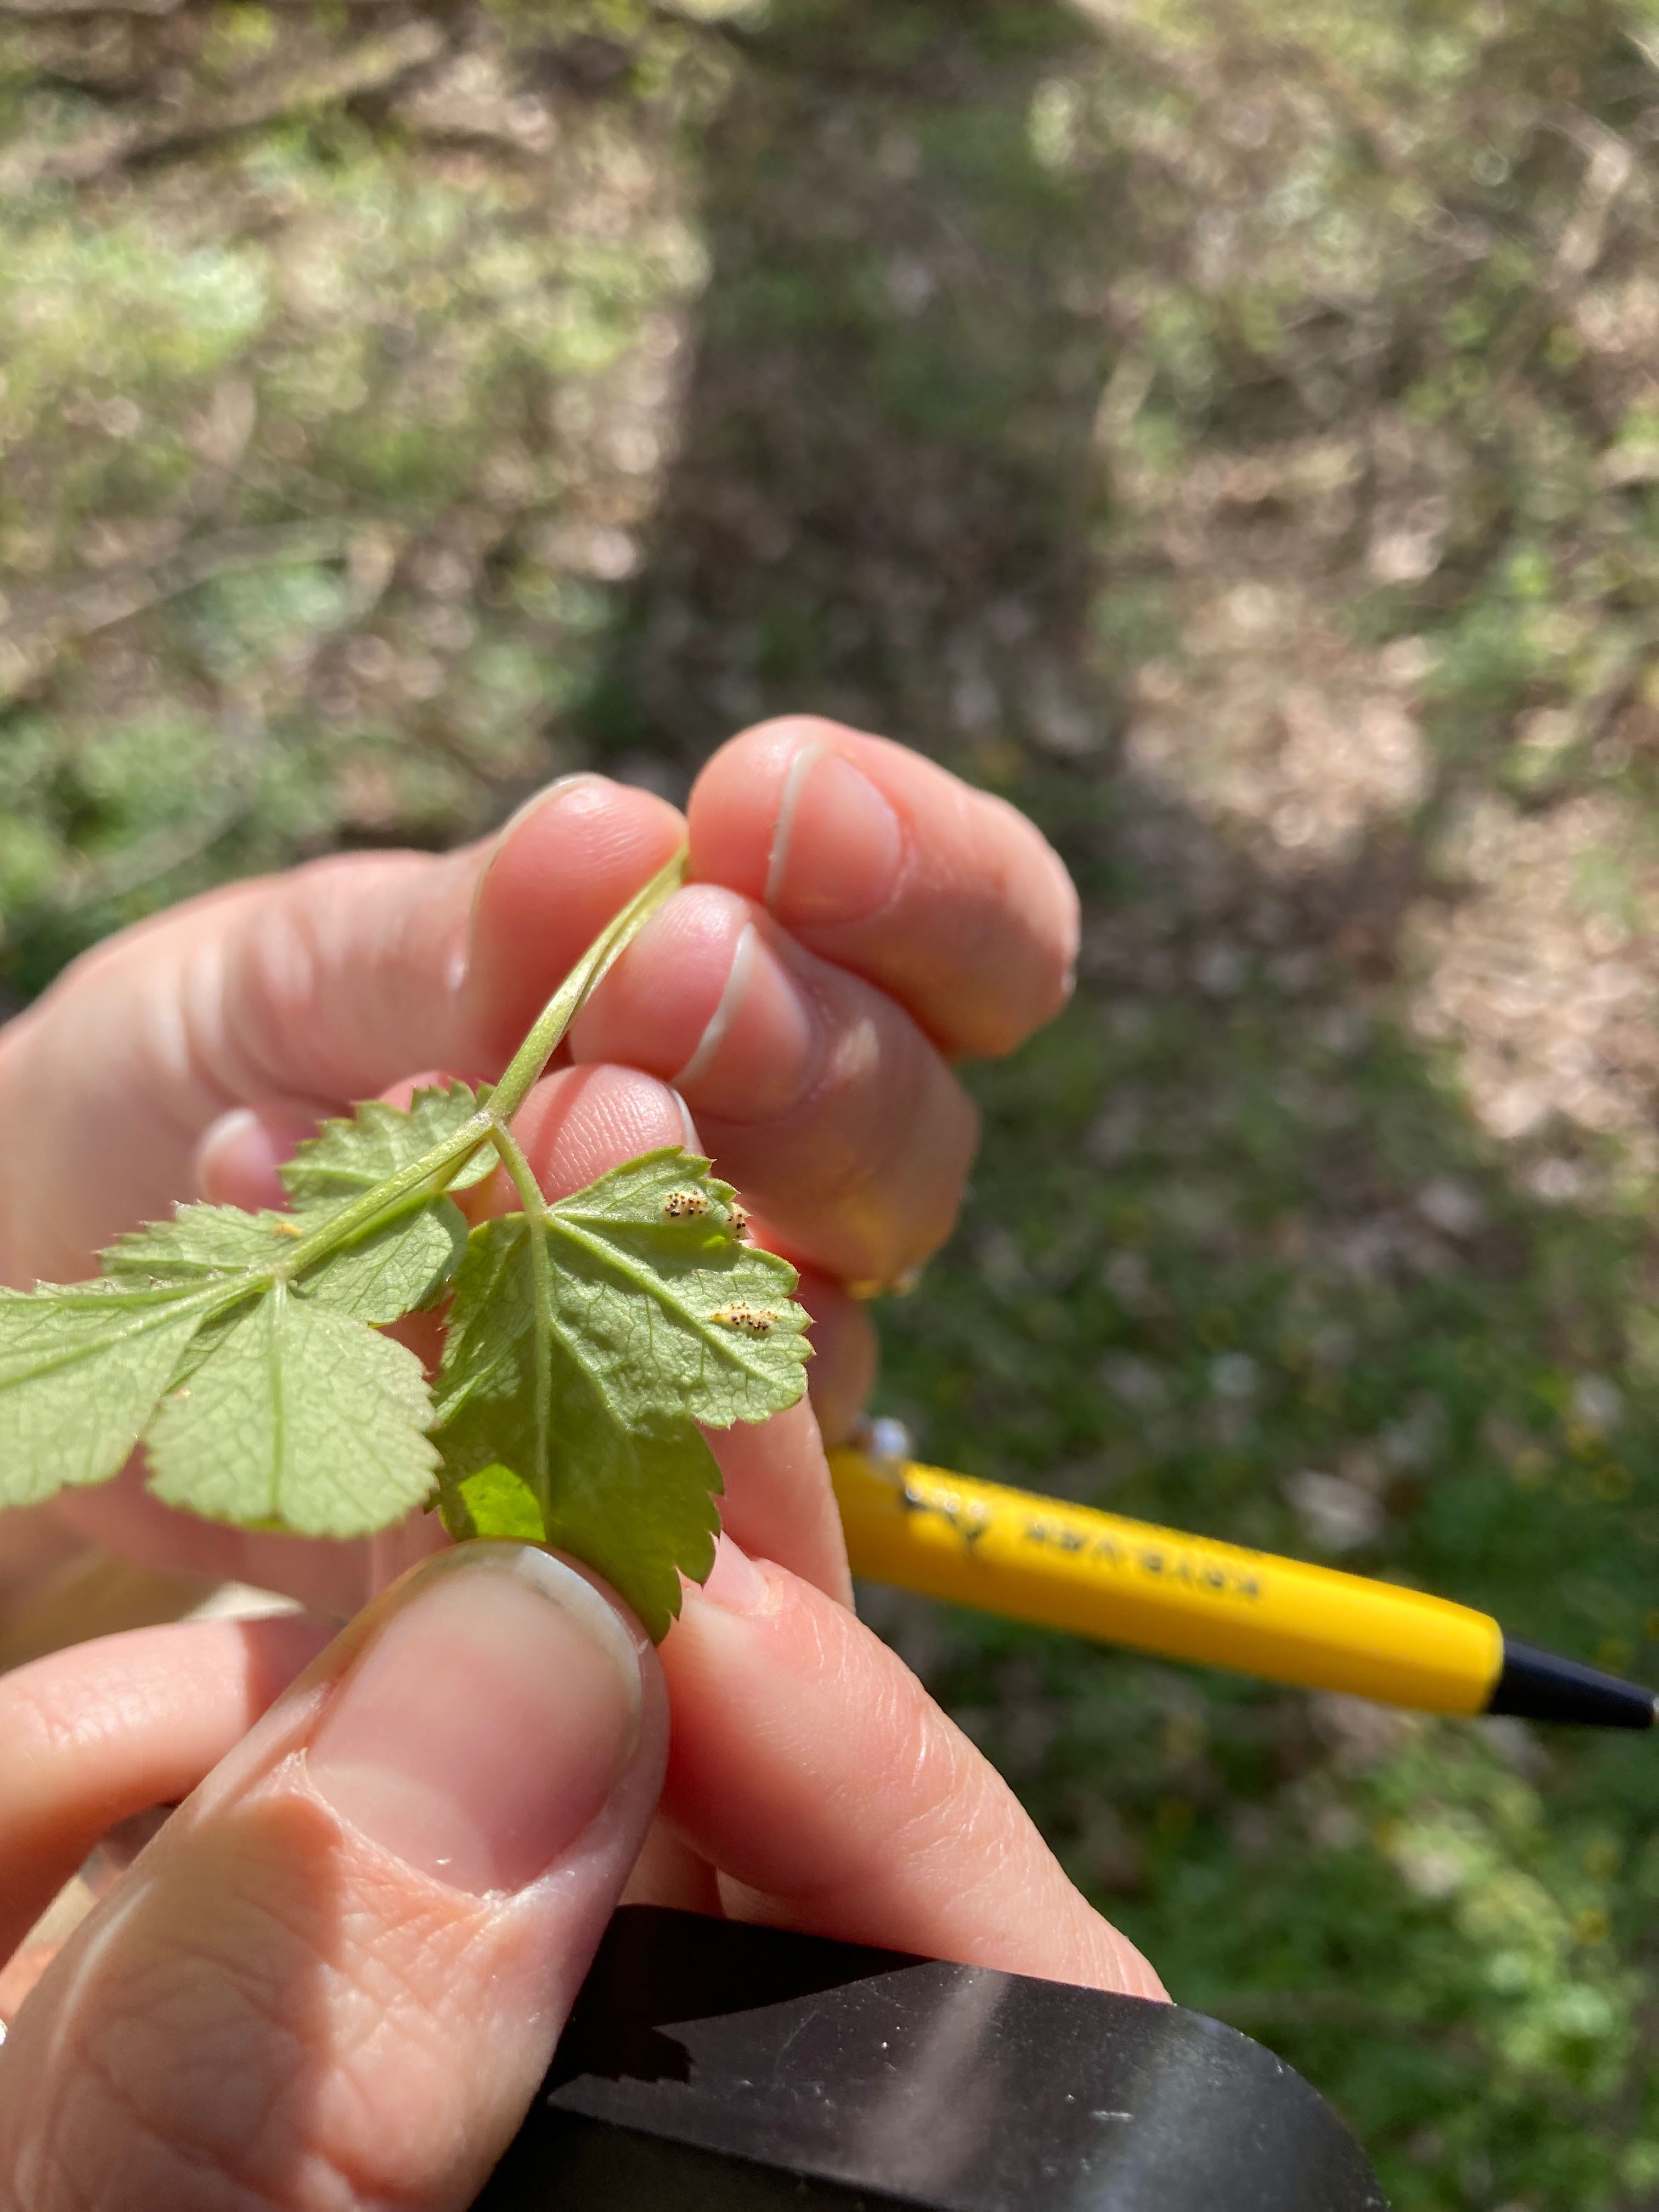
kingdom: Fungi
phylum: Basidiomycota
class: Pucciniomycetes
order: Pucciniales
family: Pucciniaceae
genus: Puccinia
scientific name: Puccinia
